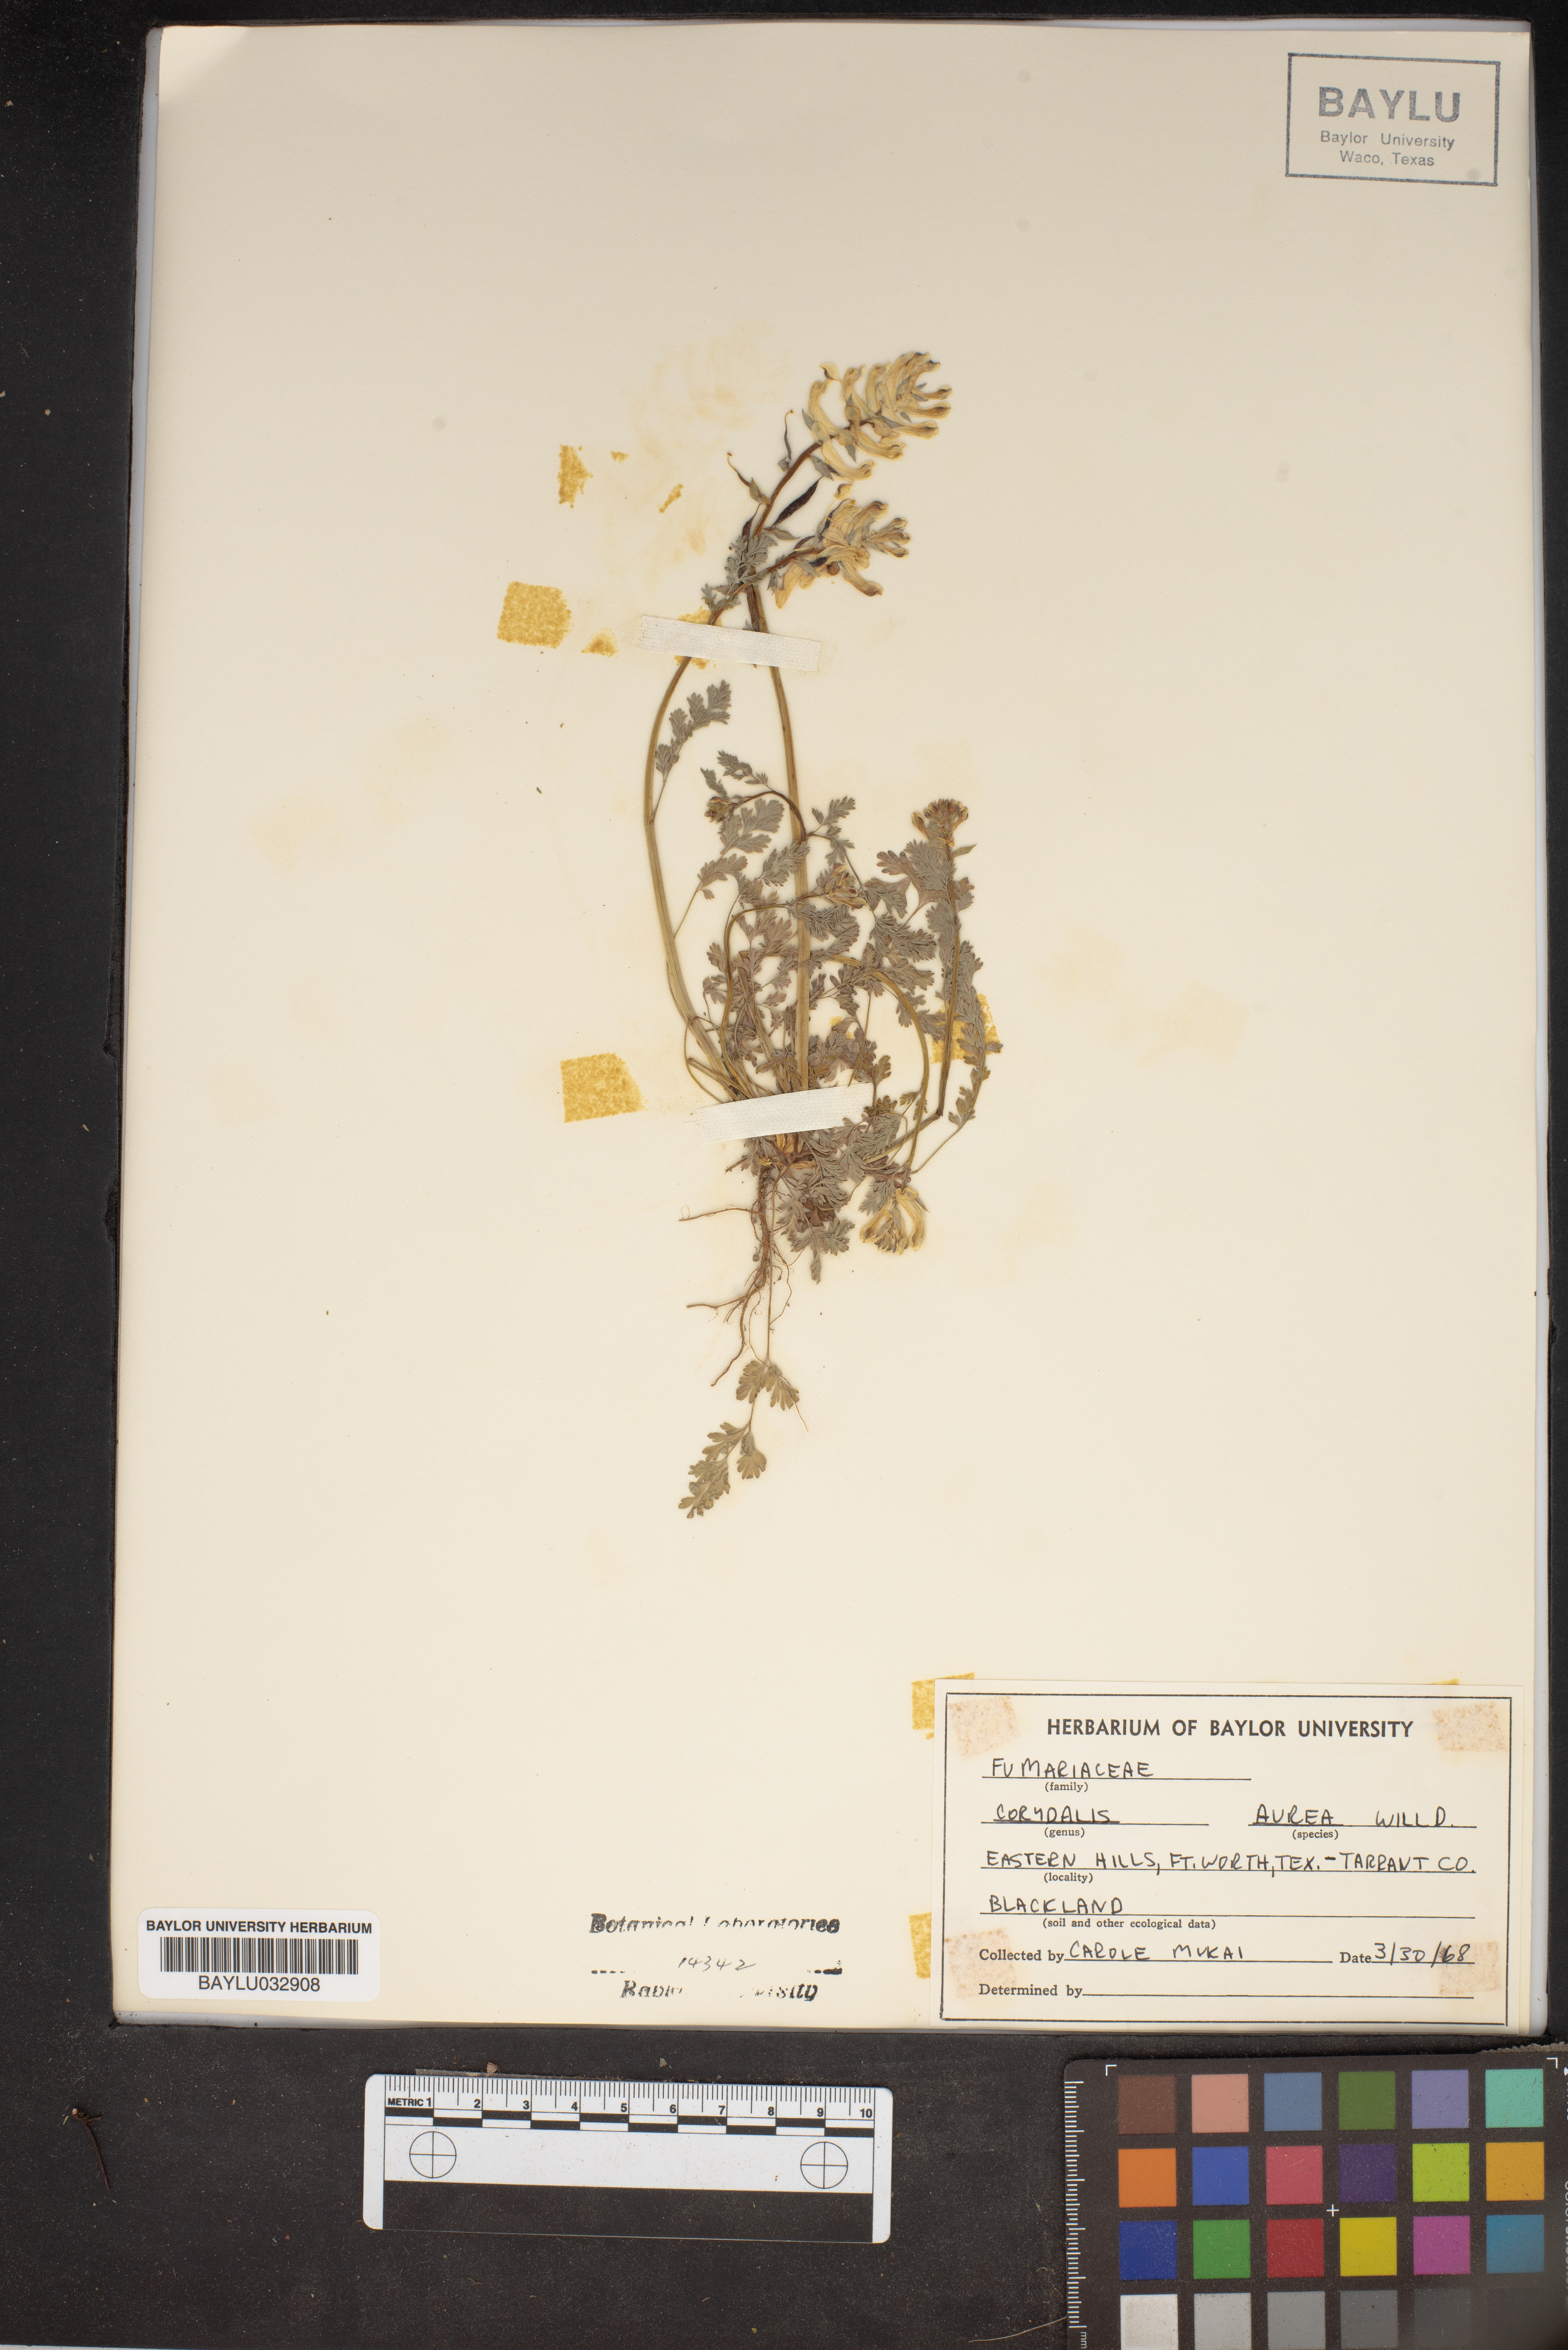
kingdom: Plantae
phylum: Tracheophyta
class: Magnoliopsida
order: Ranunculales
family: Papaveraceae
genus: Corydalis
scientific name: Corydalis aurea
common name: Golden corydalis
